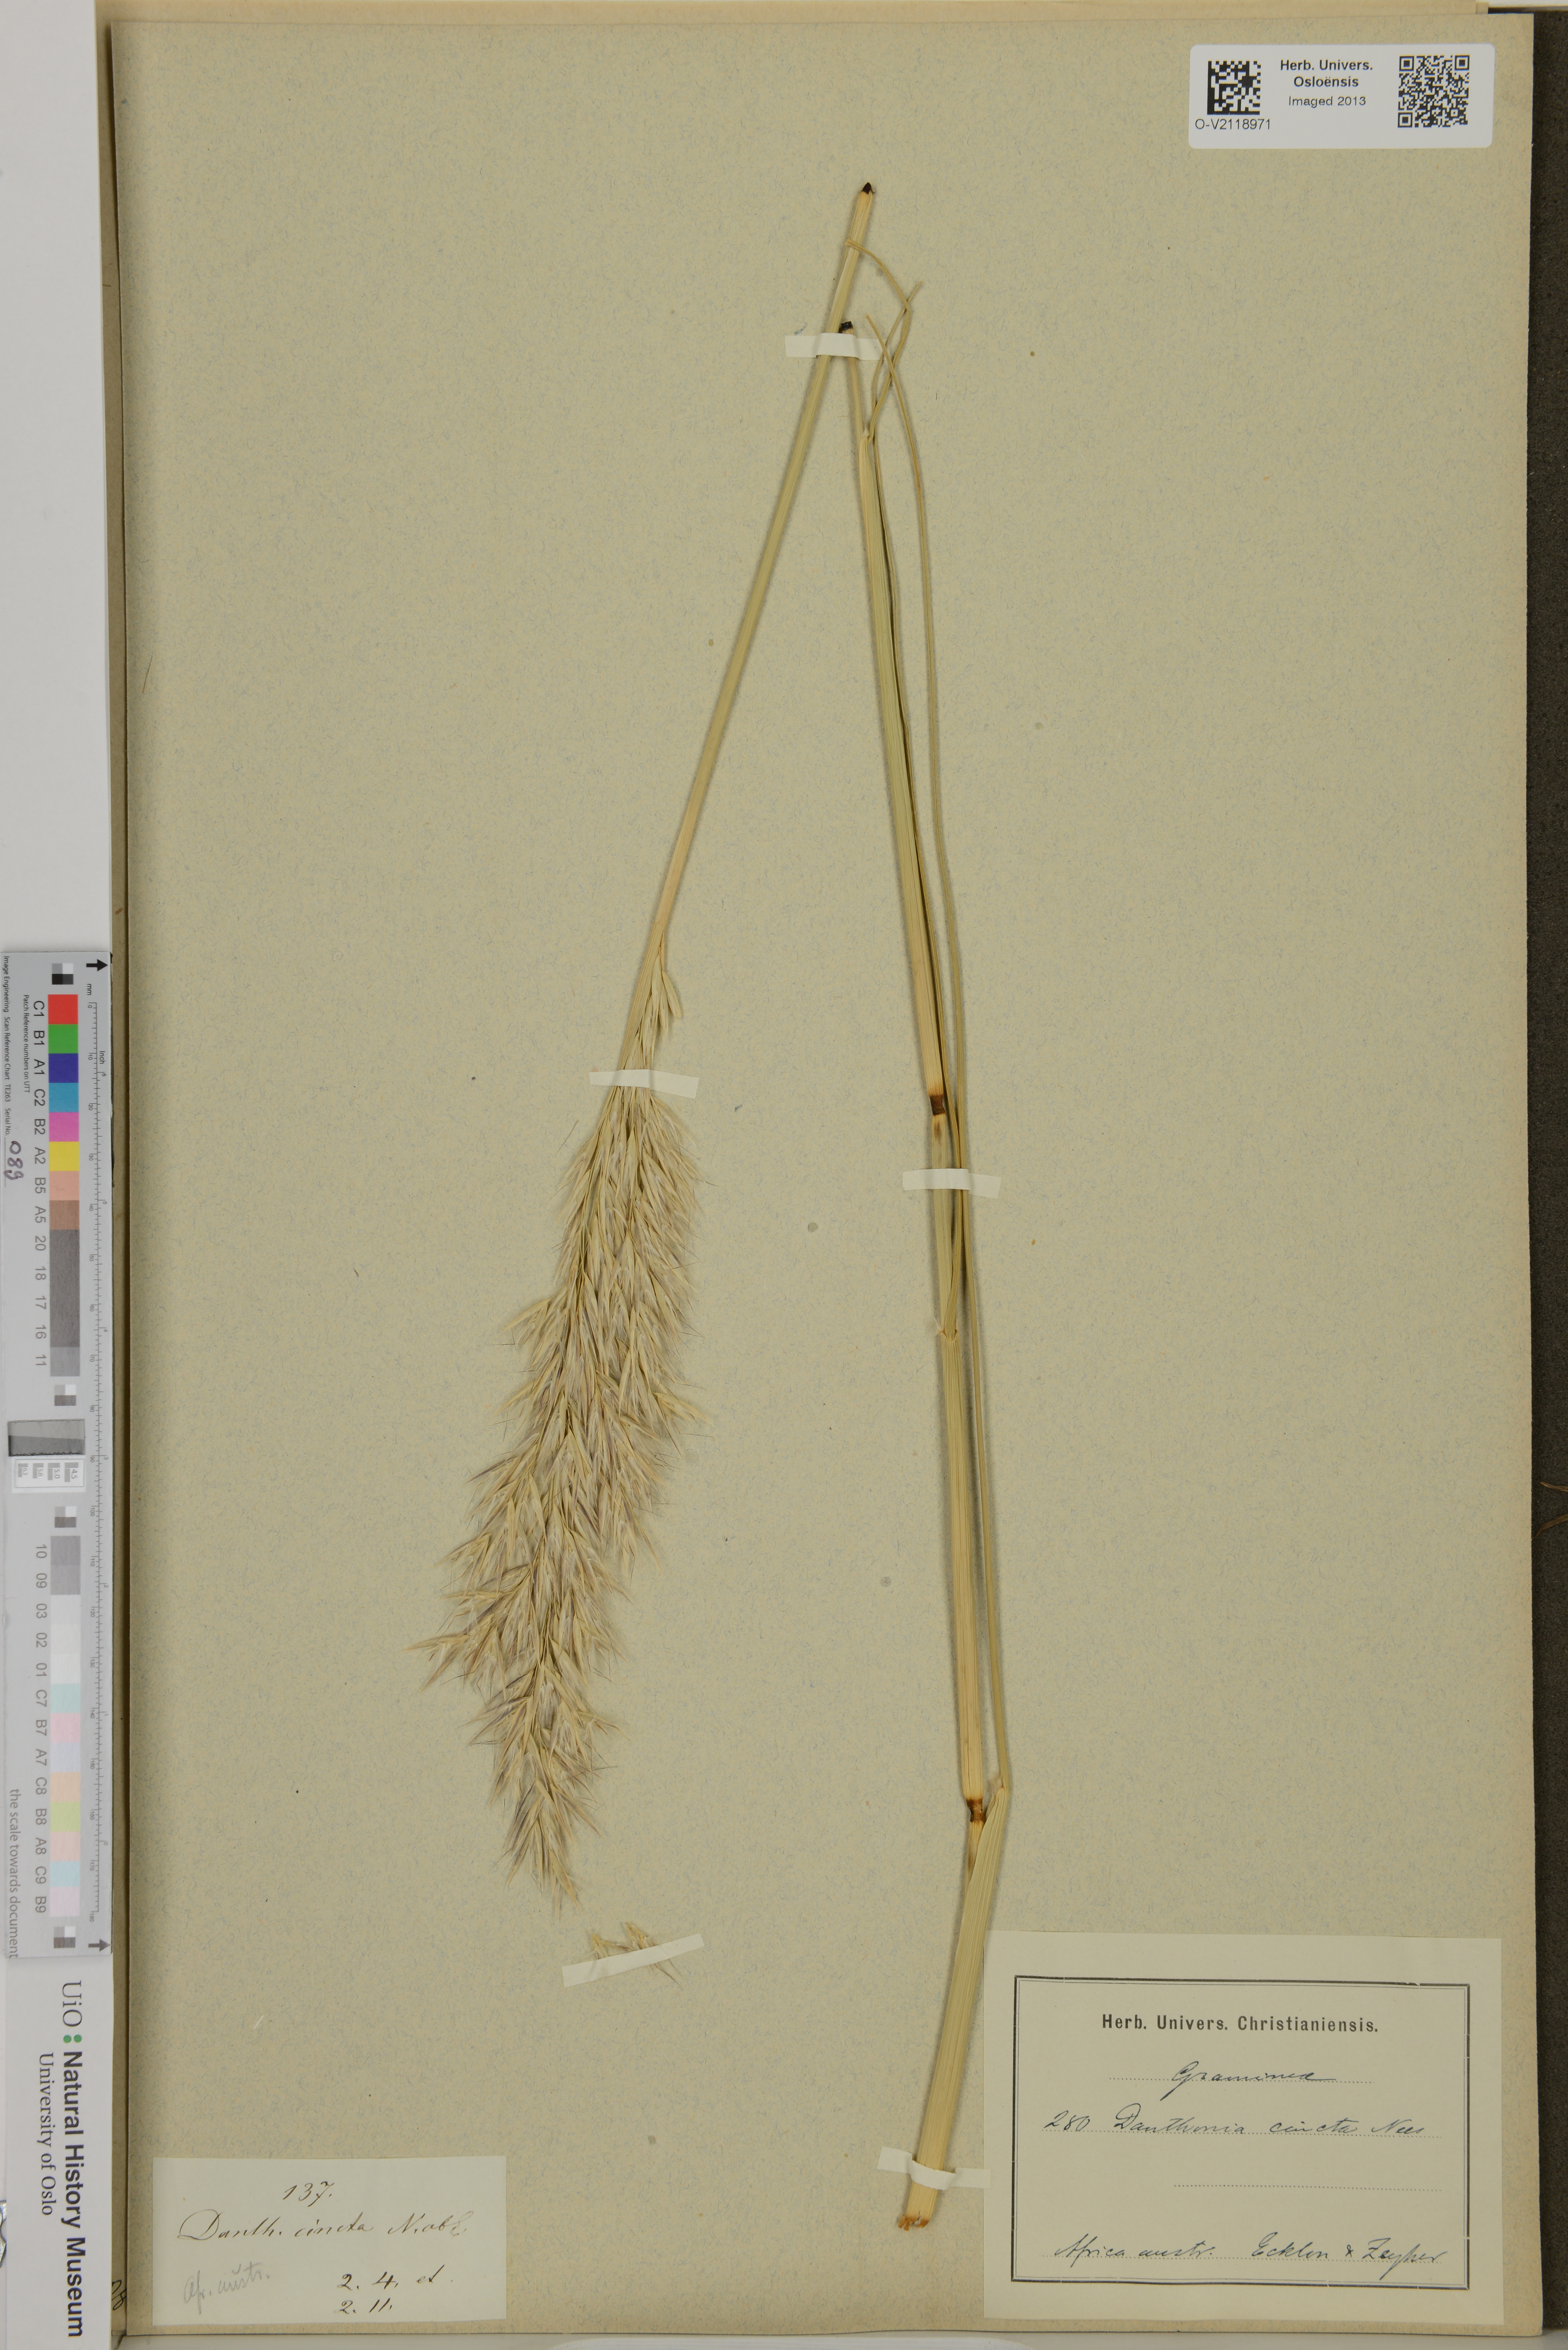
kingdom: Plantae
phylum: Tracheophyta
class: Liliopsida
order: Poales
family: Poaceae
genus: Capeochloa
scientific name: Capeochloa cincta
